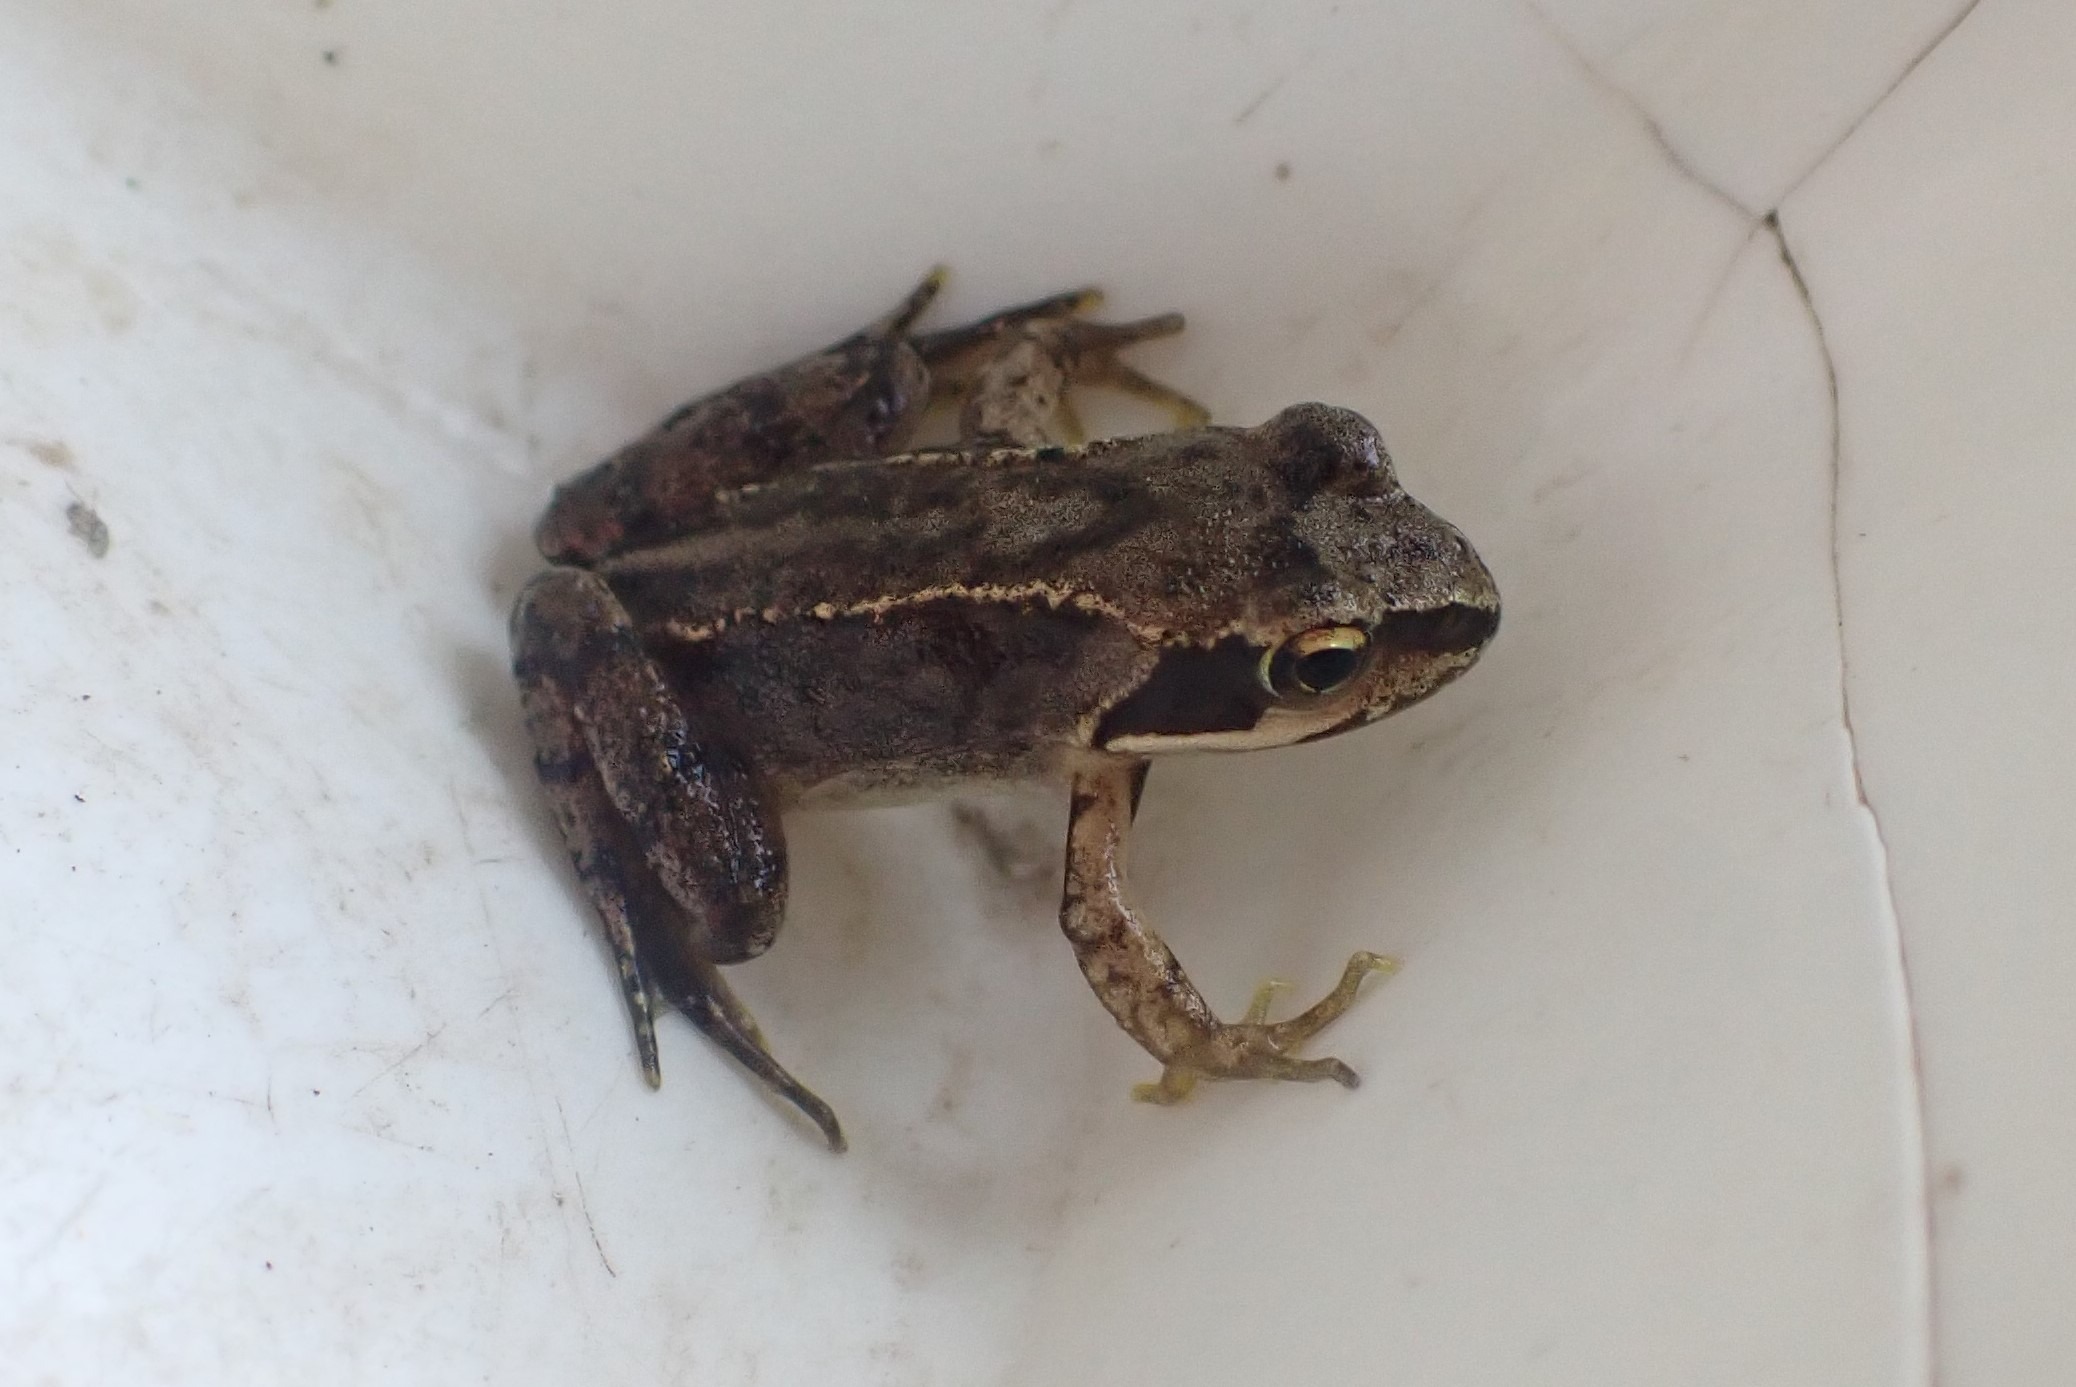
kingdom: Animalia
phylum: Chordata
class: Amphibia
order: Anura
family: Ranidae
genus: Rana
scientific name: Rana temporaria
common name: Butsnudet frø
